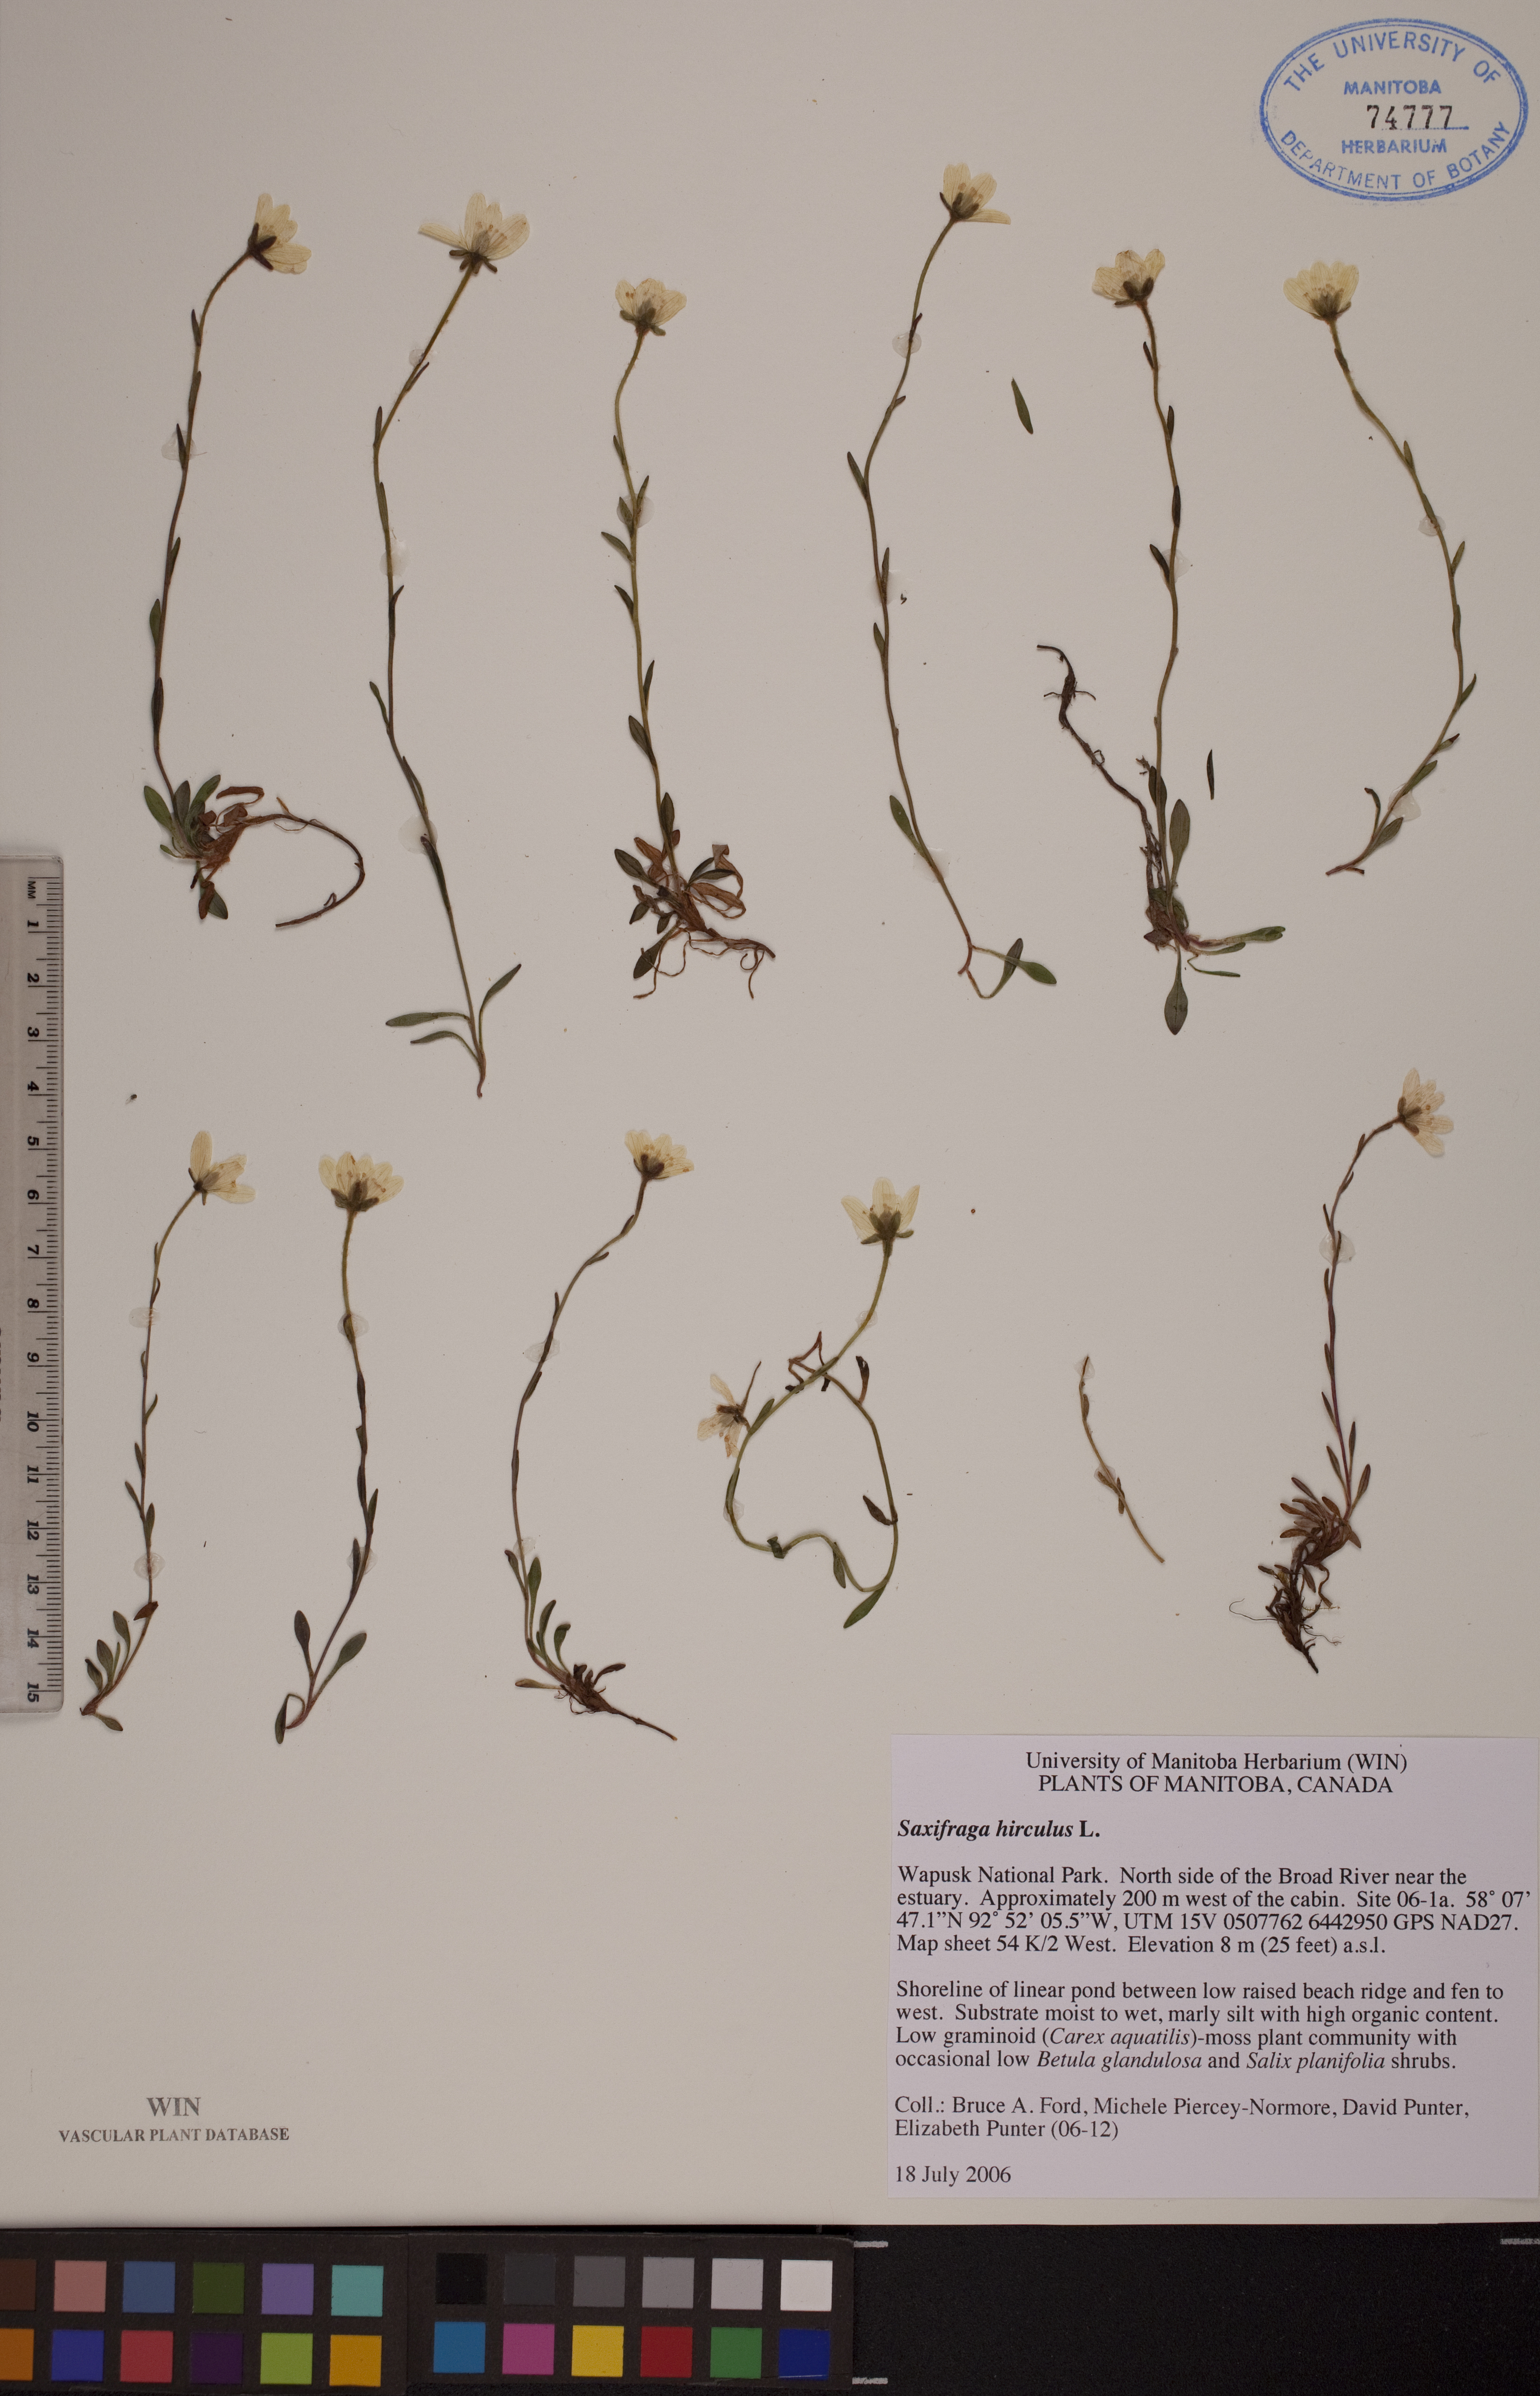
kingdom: Plantae
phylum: Tracheophyta
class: Magnoliopsida
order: Saxifragales
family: Saxifragaceae
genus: Saxifraga
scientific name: Saxifraga hirculus
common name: Yellow marsh saxifrage
